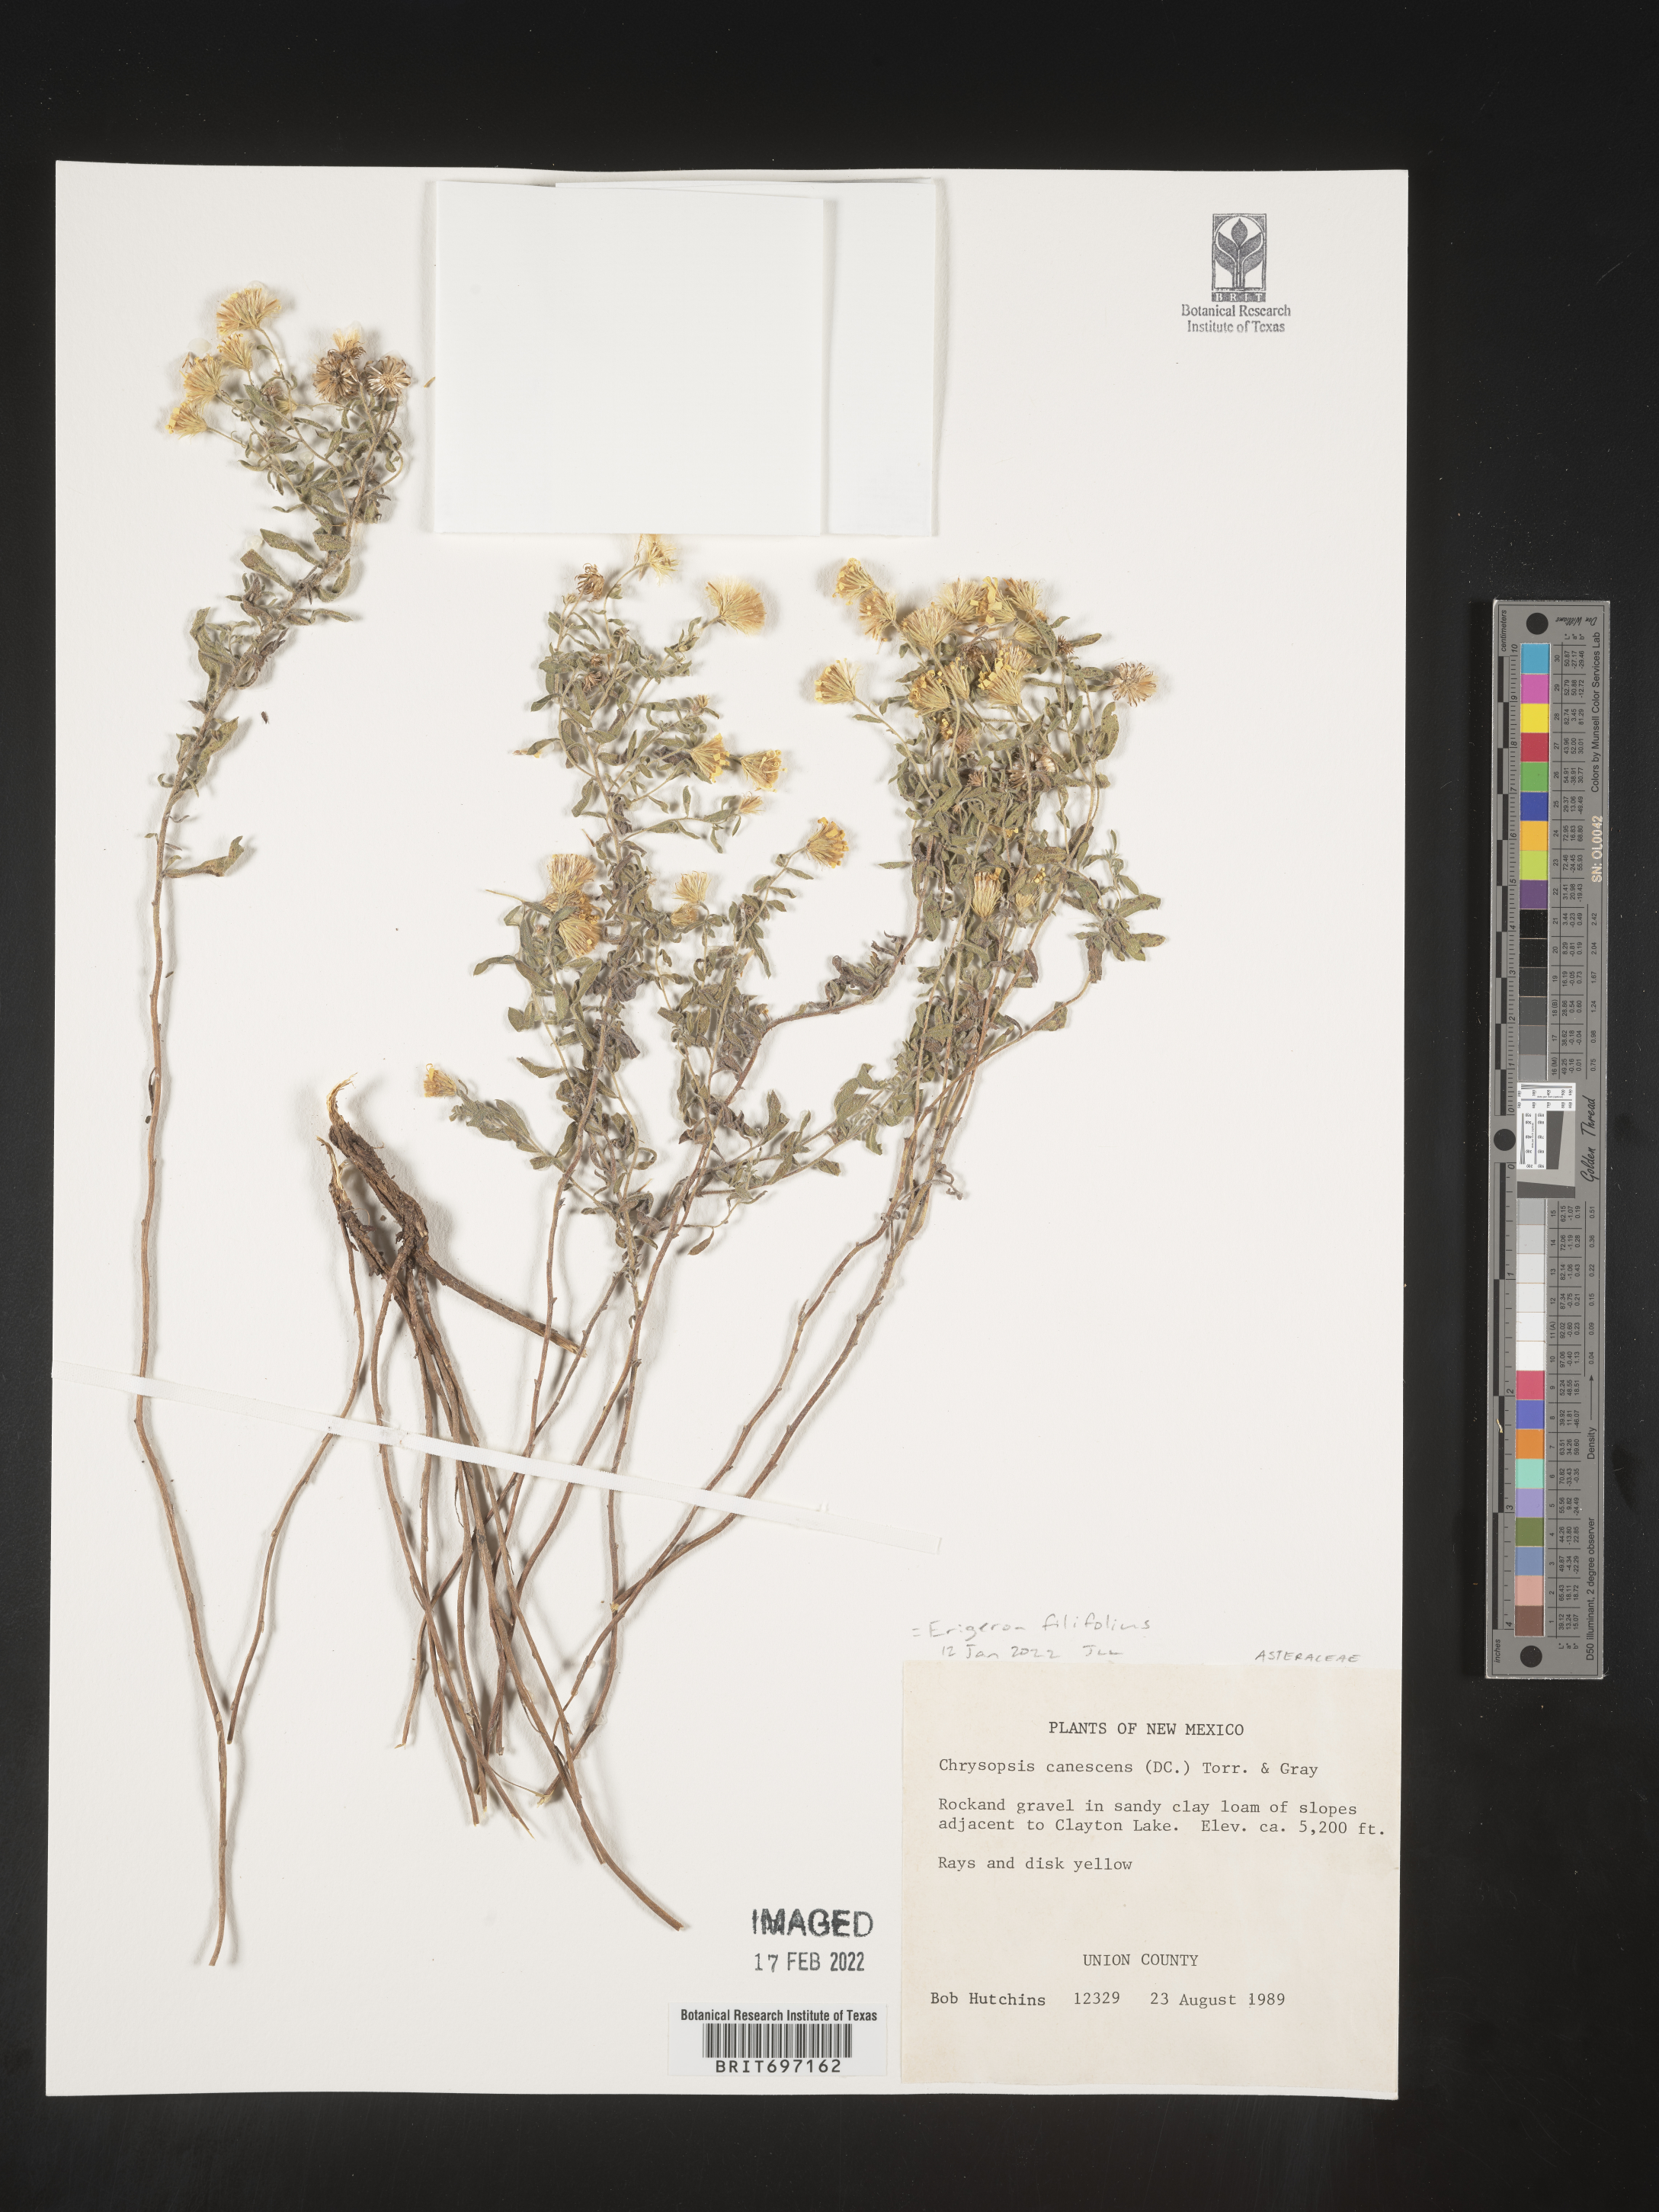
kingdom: Plantae
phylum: Tracheophyta
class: Magnoliopsida
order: Asterales
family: Asteraceae
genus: Erigeron
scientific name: Erigeron filifolius
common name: Threadleaf fleabane
